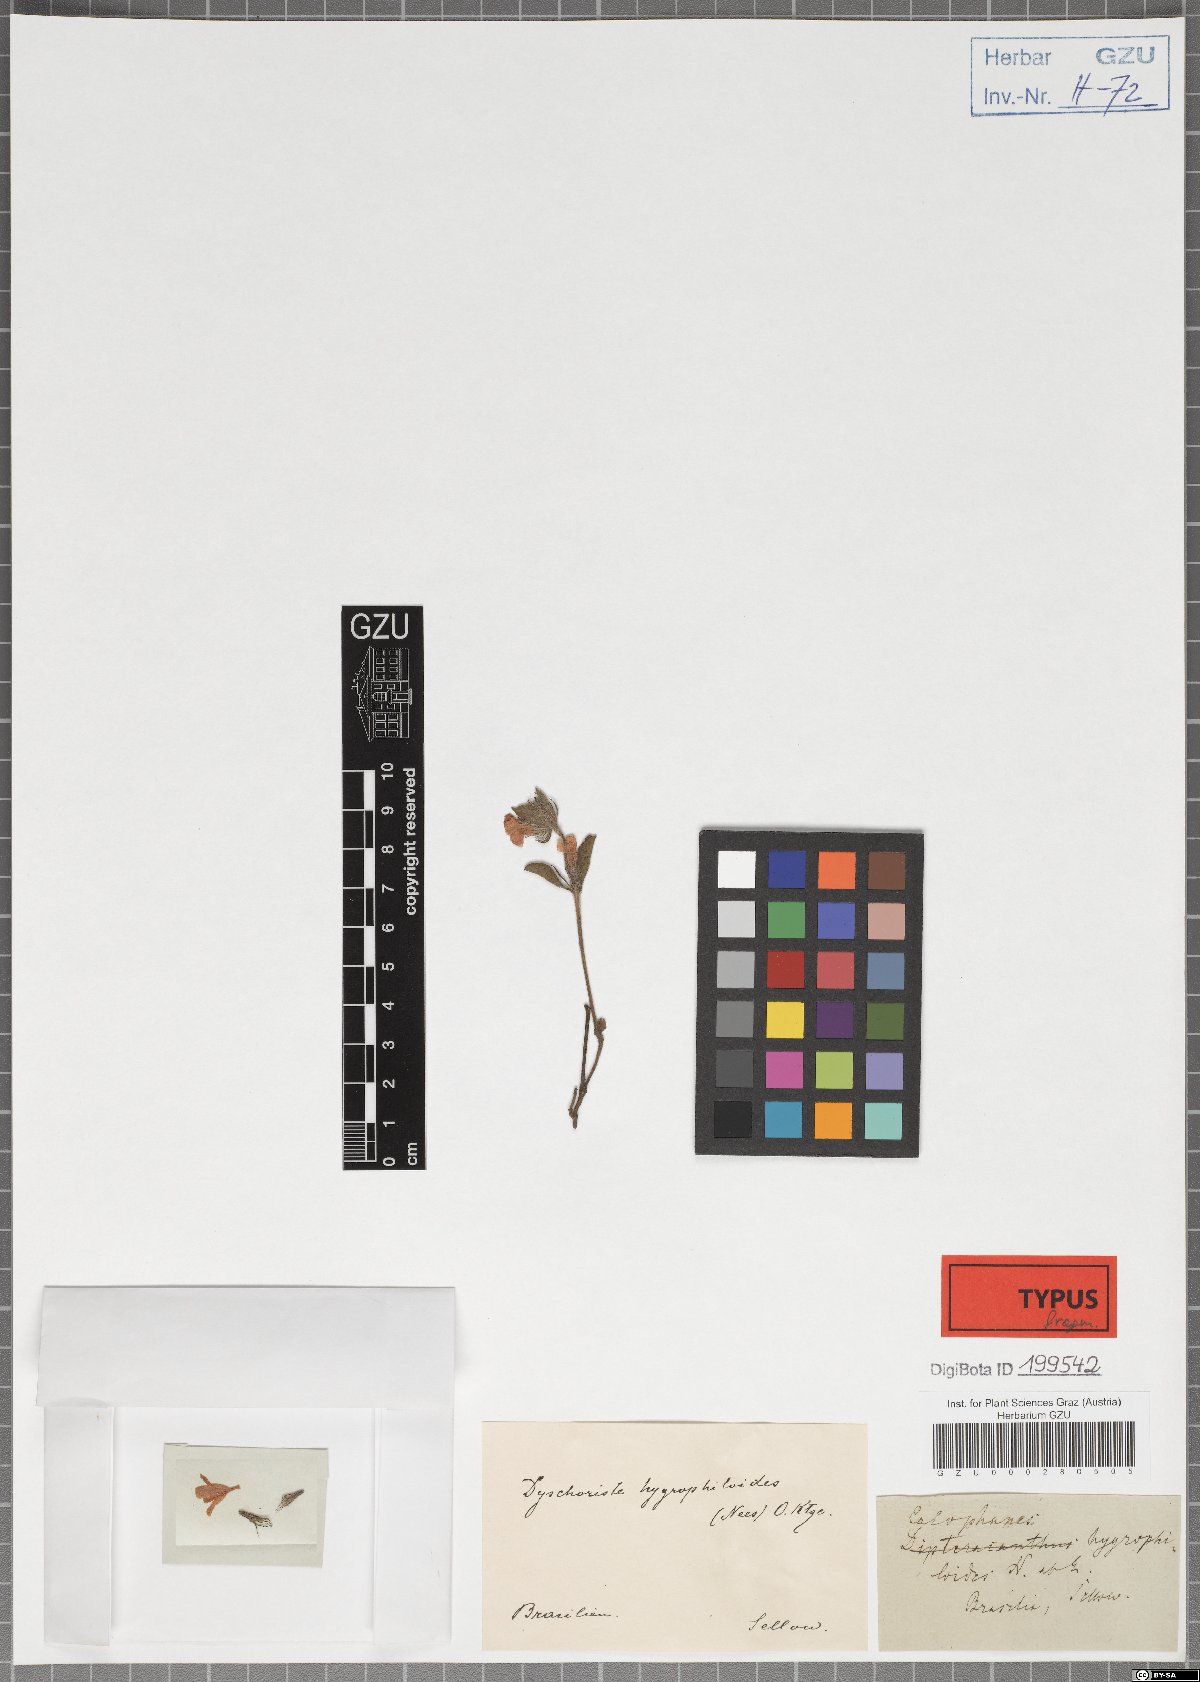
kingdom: Plantae
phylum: Tracheophyta
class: Magnoliopsida
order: Lamiales
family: Acanthaceae
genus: Dyschoriste
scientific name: Dyschoriste hygrophyloides
